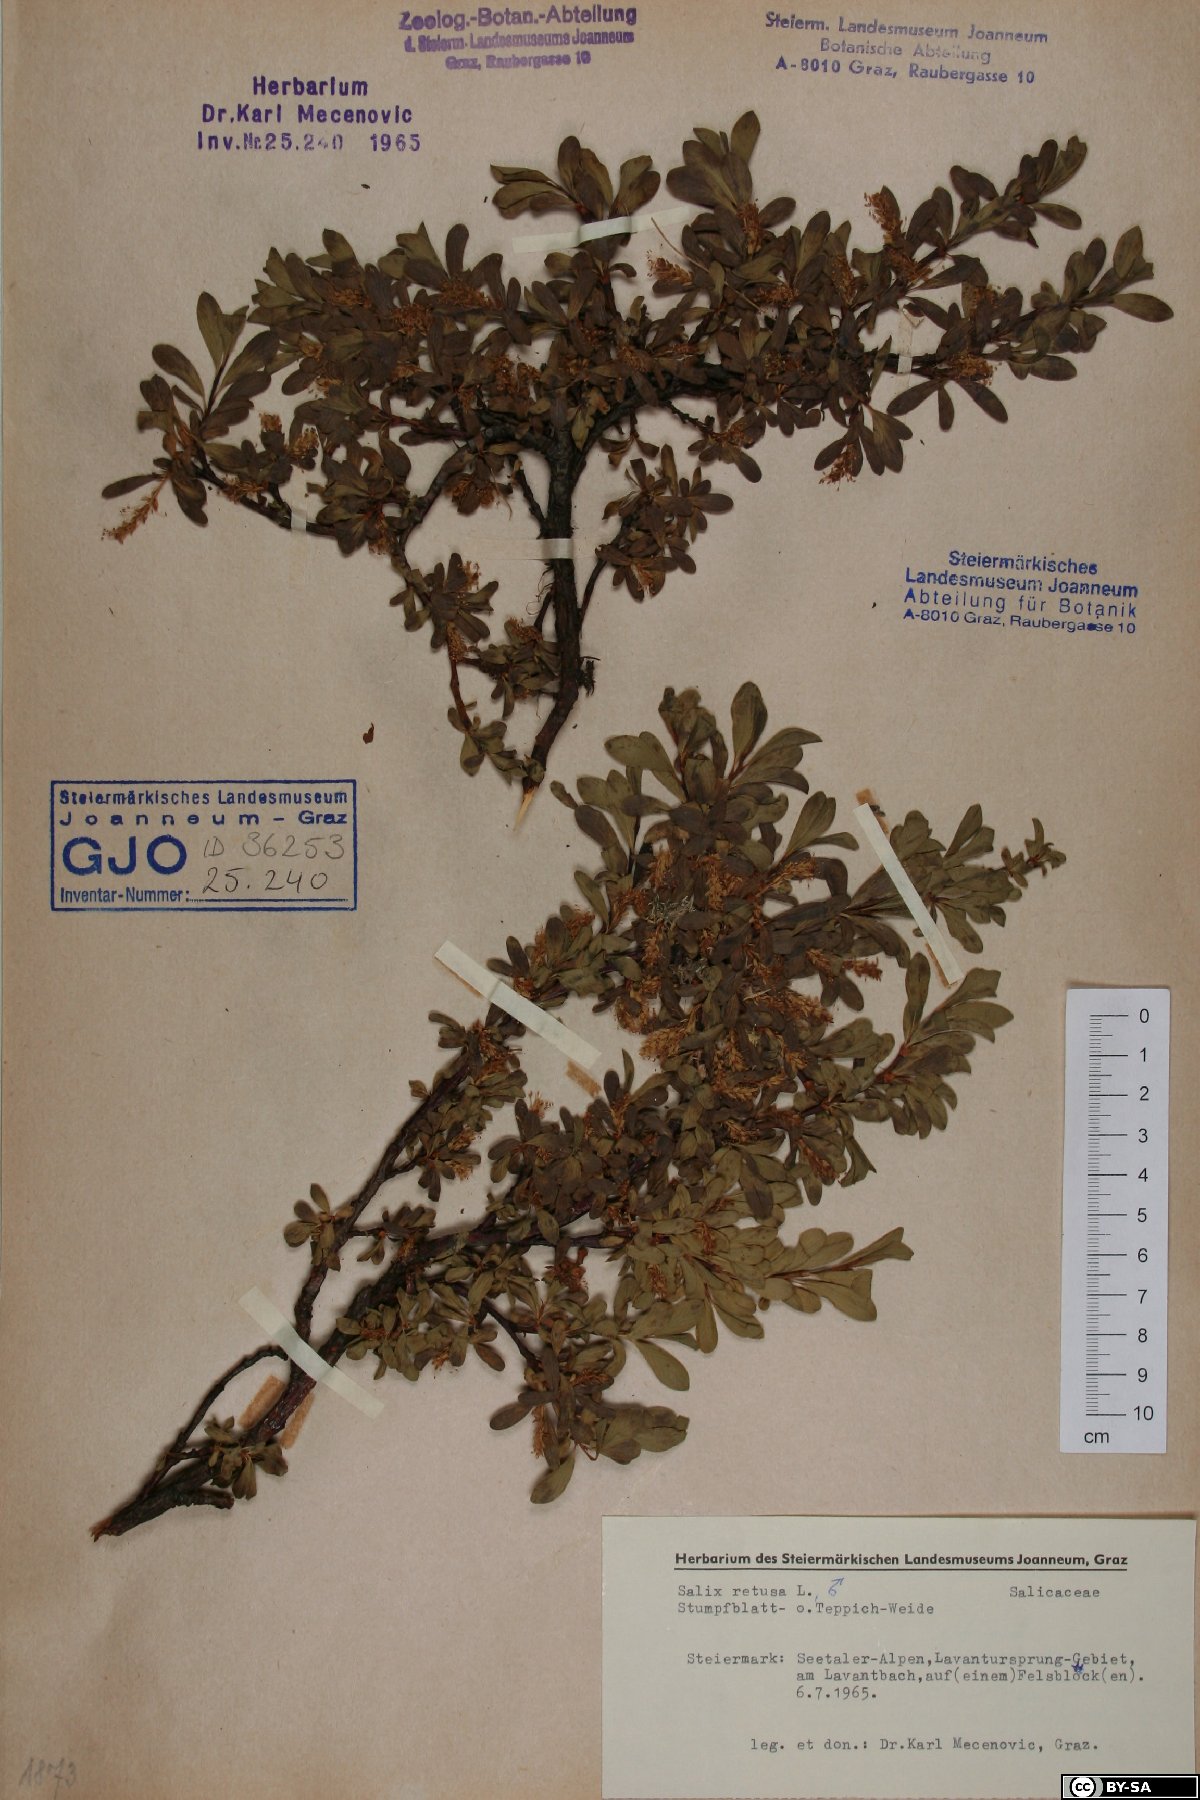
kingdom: Plantae
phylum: Tracheophyta
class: Magnoliopsida
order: Malpighiales
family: Salicaceae
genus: Salix
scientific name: Salix retusa
